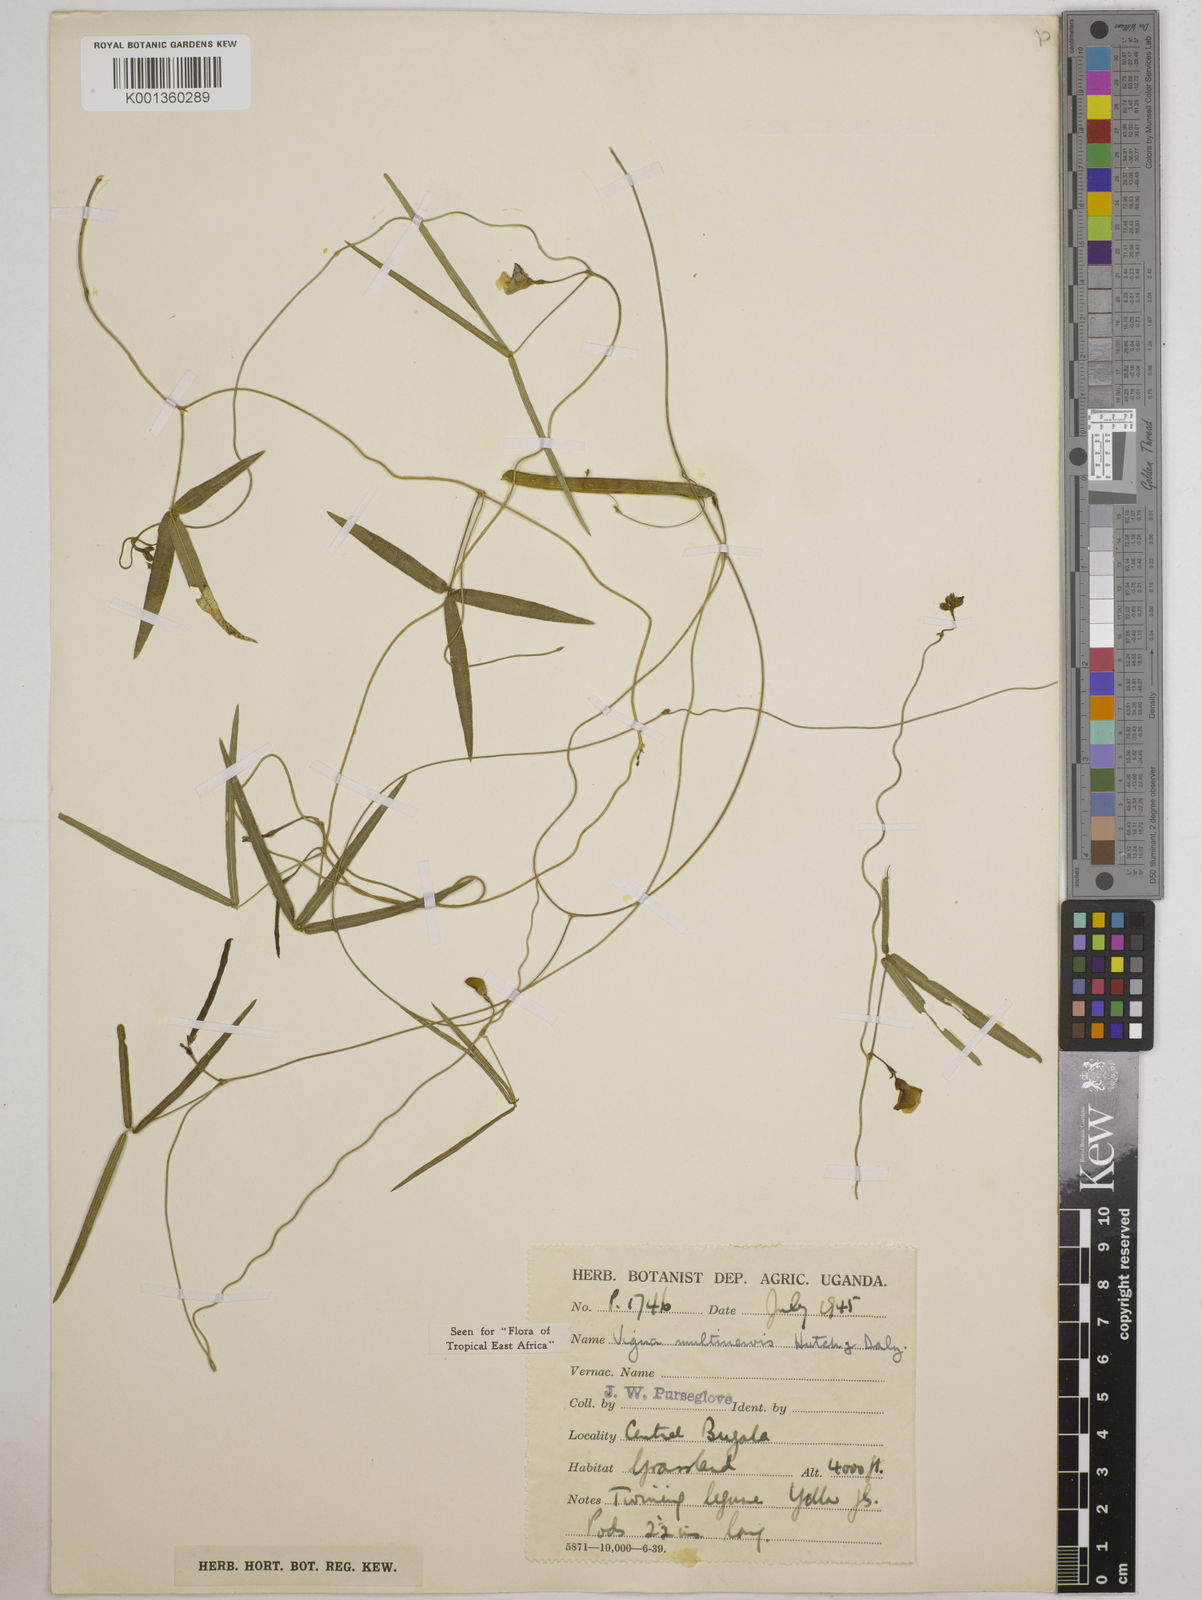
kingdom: Plantae
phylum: Tracheophyta
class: Magnoliopsida
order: Fabales
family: Fabaceae
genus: Vigna
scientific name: Vigna multinervis
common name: Fula-pulaar
